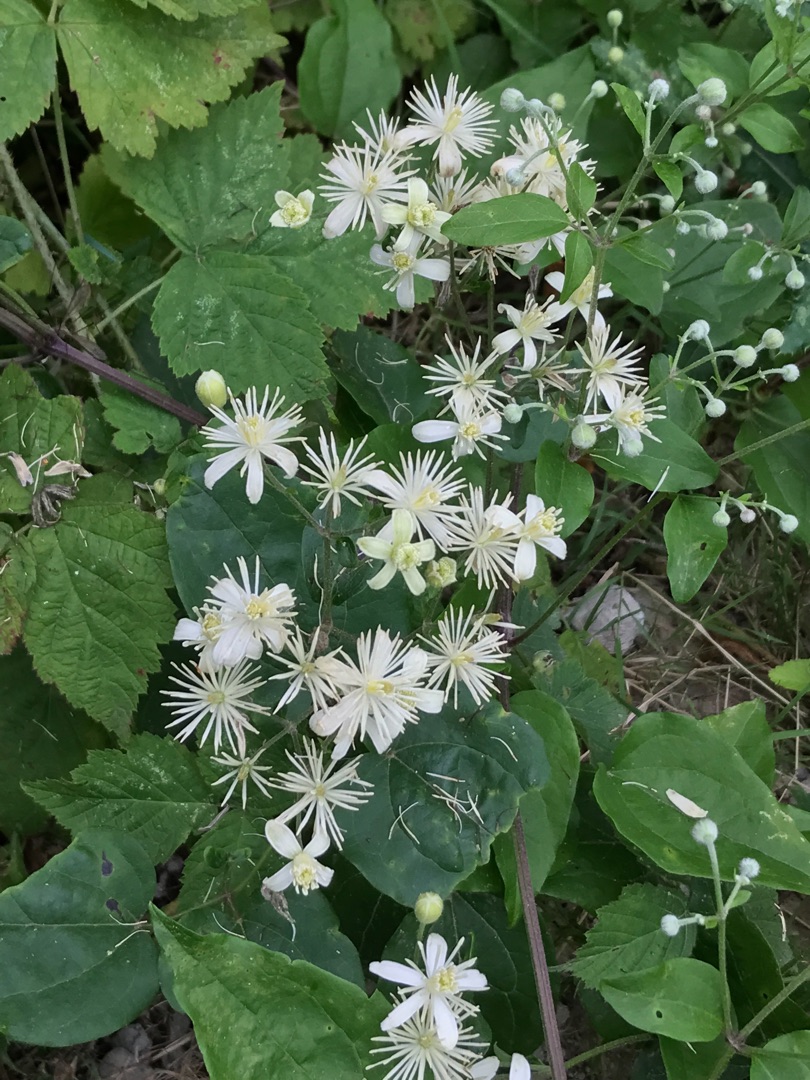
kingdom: Plantae
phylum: Tracheophyta
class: Magnoliopsida
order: Ranunculales
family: Ranunculaceae
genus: Clematis
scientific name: Clematis vitalba
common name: Skovranke
